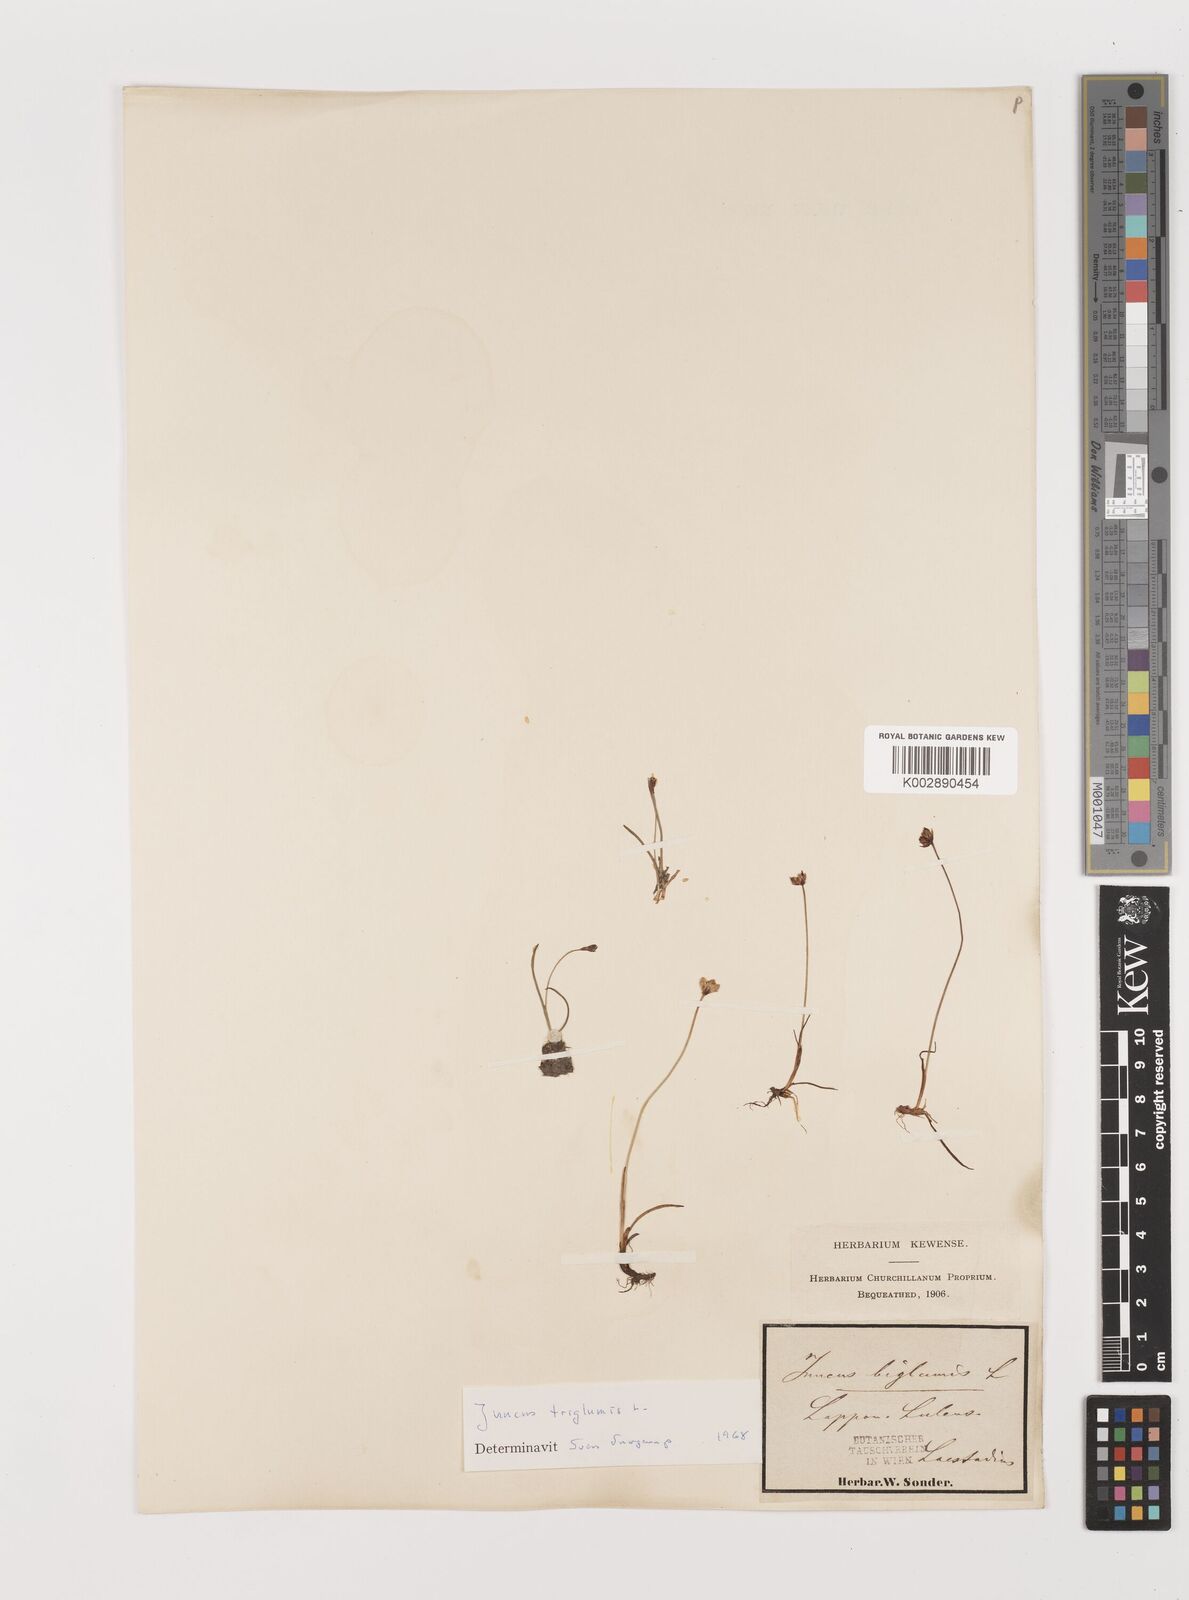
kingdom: Plantae
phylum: Tracheophyta
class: Liliopsida
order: Poales
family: Juncaceae
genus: Juncus
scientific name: Juncus triglumis
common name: Three-flowered rush
